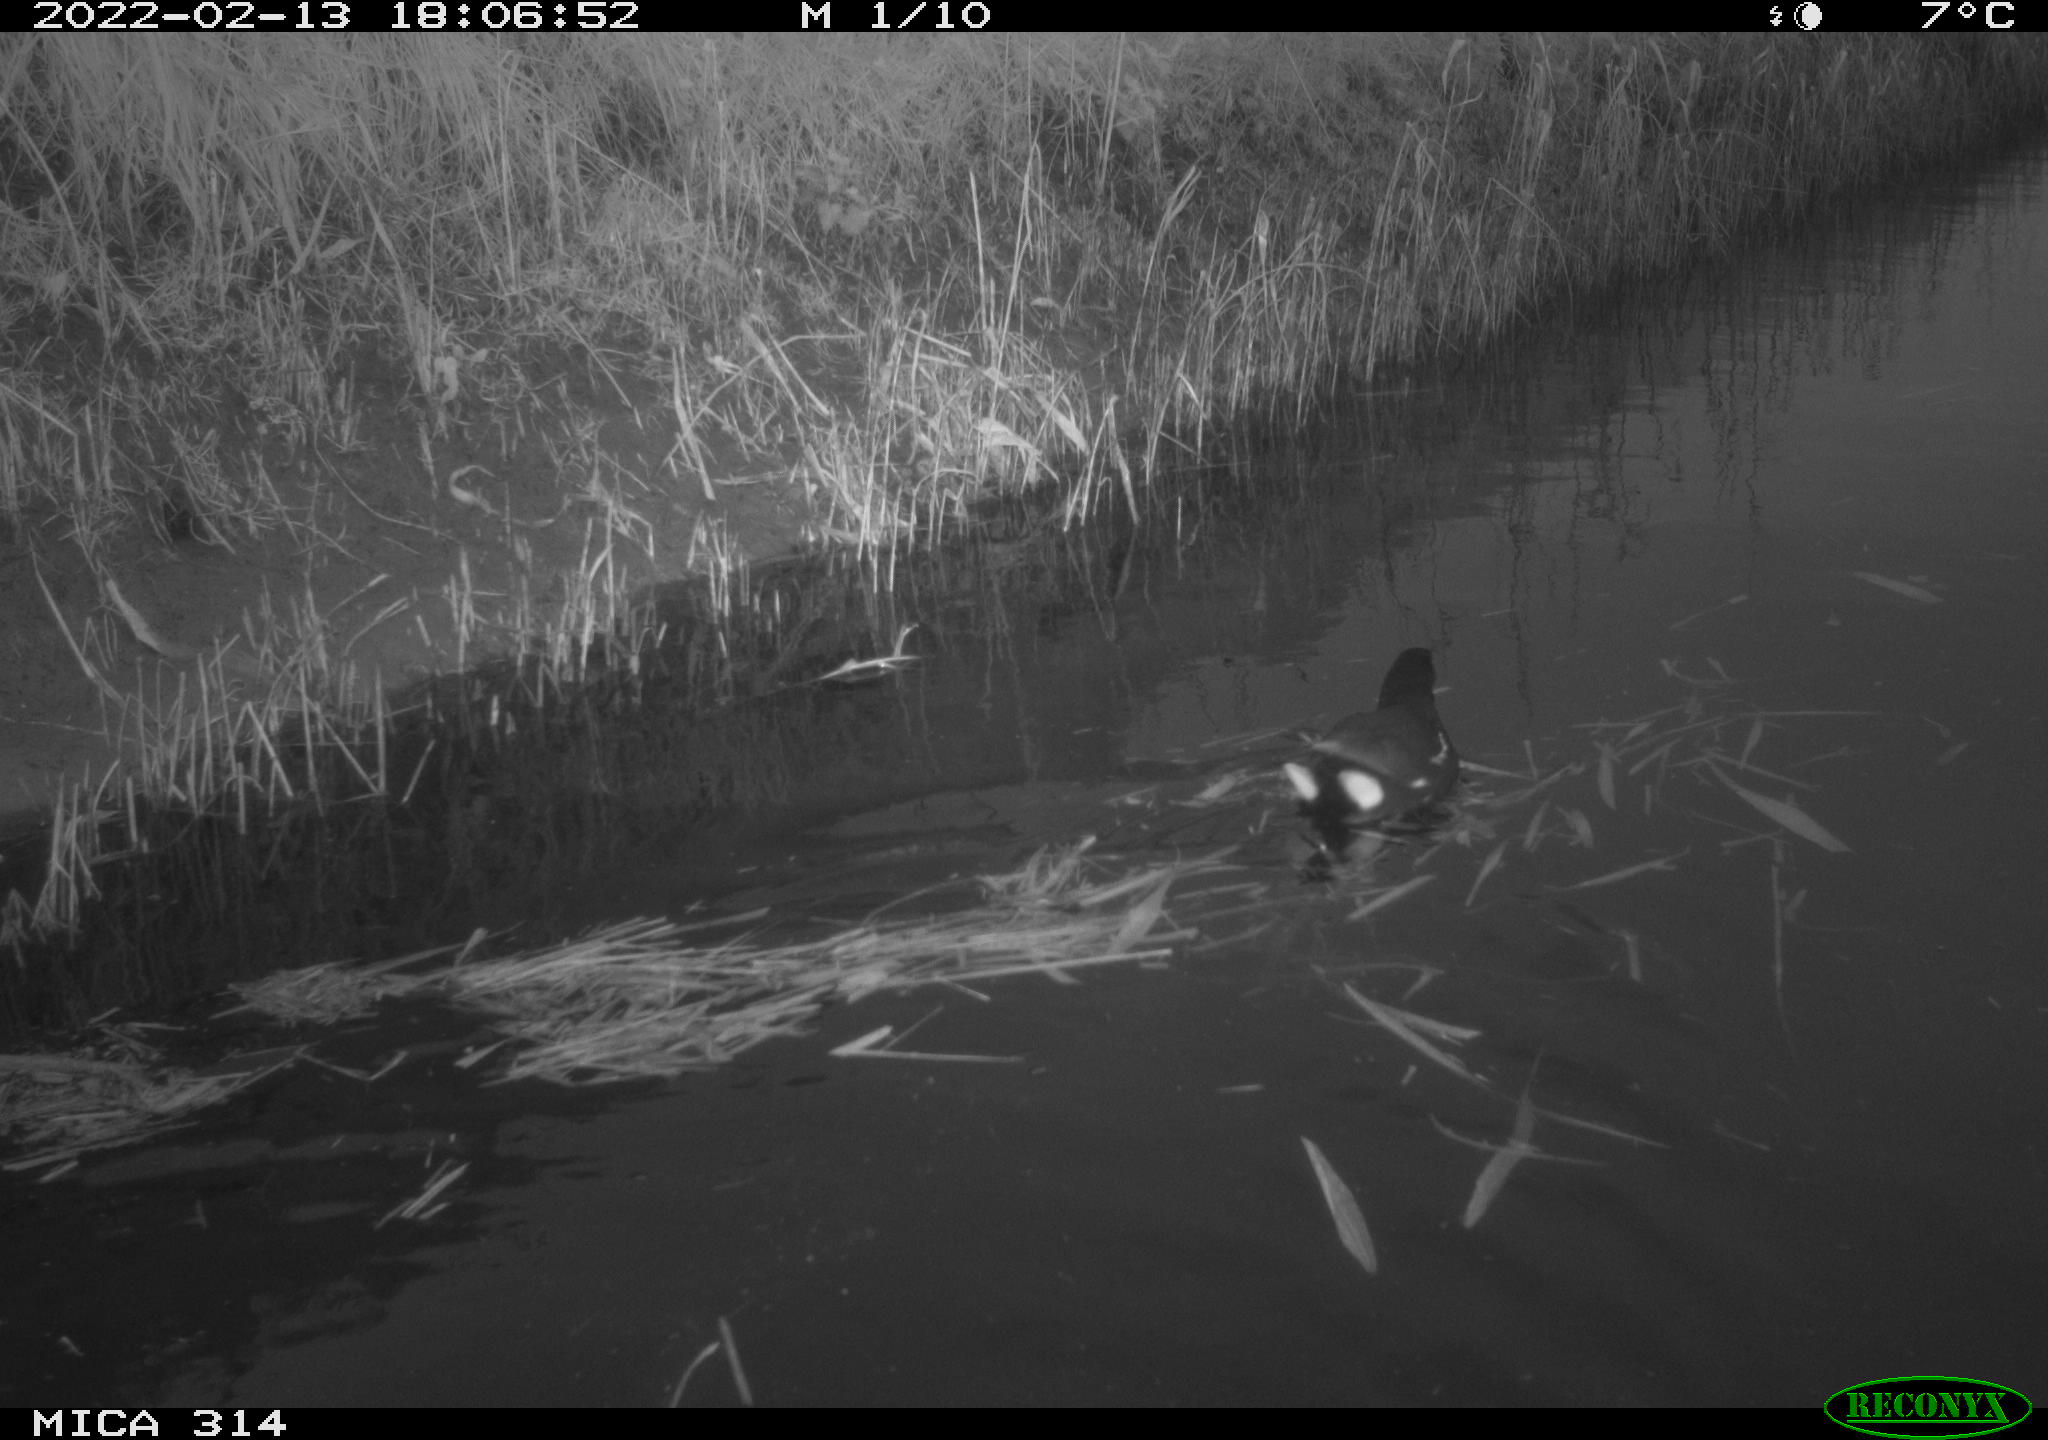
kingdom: Animalia
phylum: Chordata
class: Aves
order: Gruiformes
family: Rallidae
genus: Gallinula
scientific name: Gallinula chloropus
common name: Common moorhen
